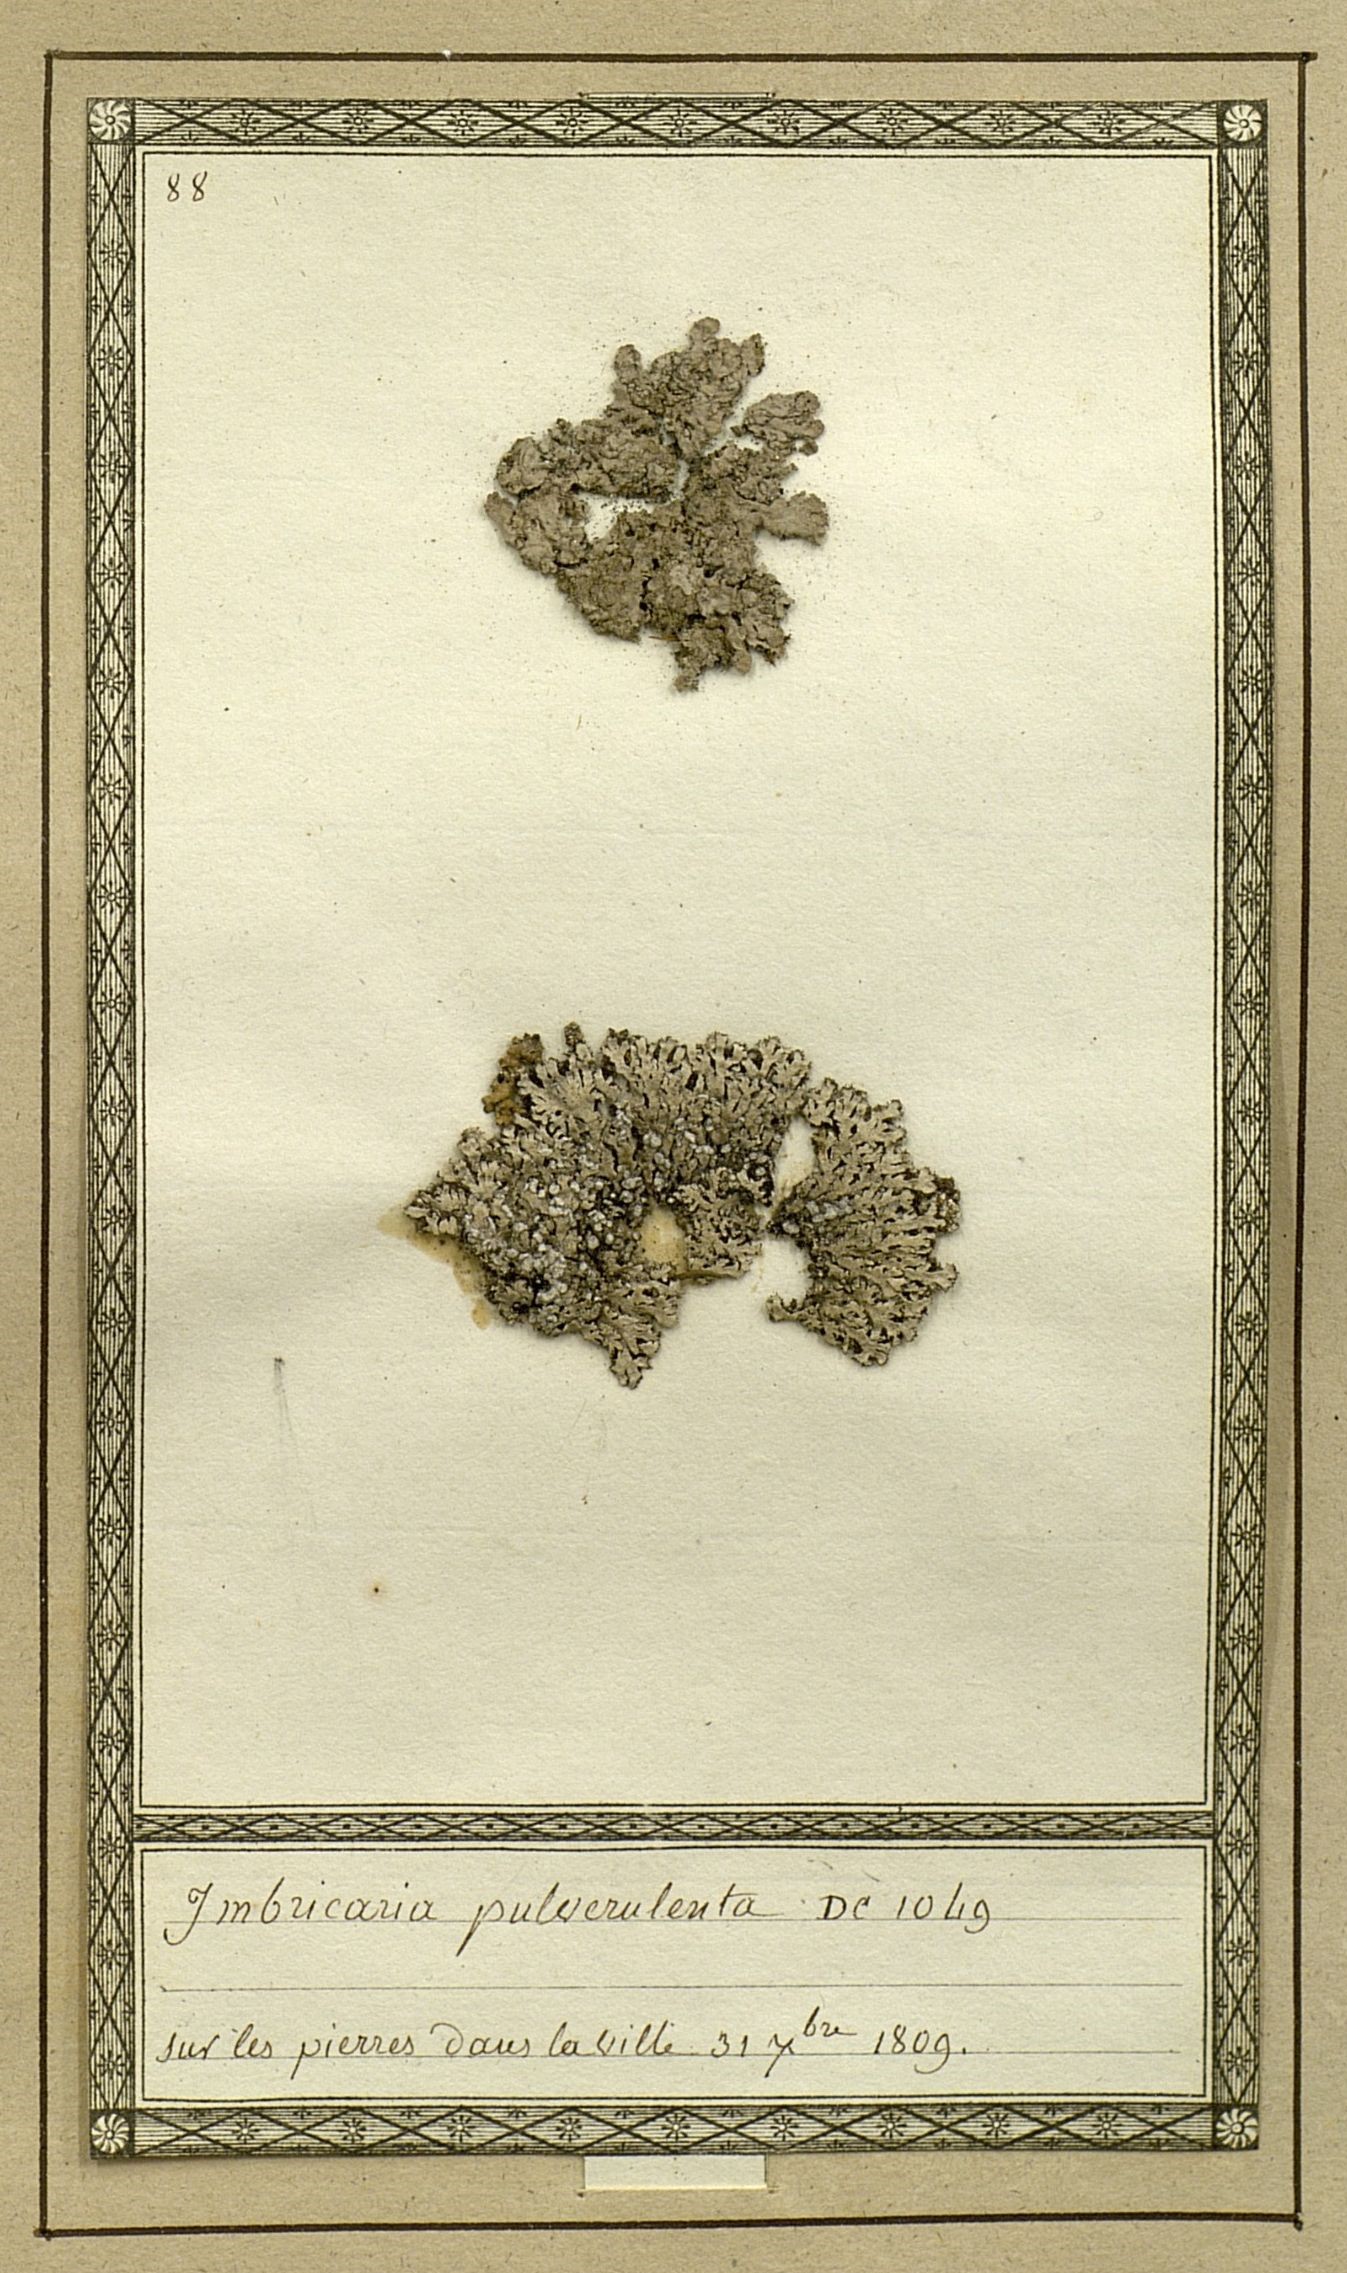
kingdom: Fungi
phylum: Ascomycota
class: Lecanoromycetes
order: Caliciales
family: Physciaceae
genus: Physconia
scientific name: Physconia pulverulenta
